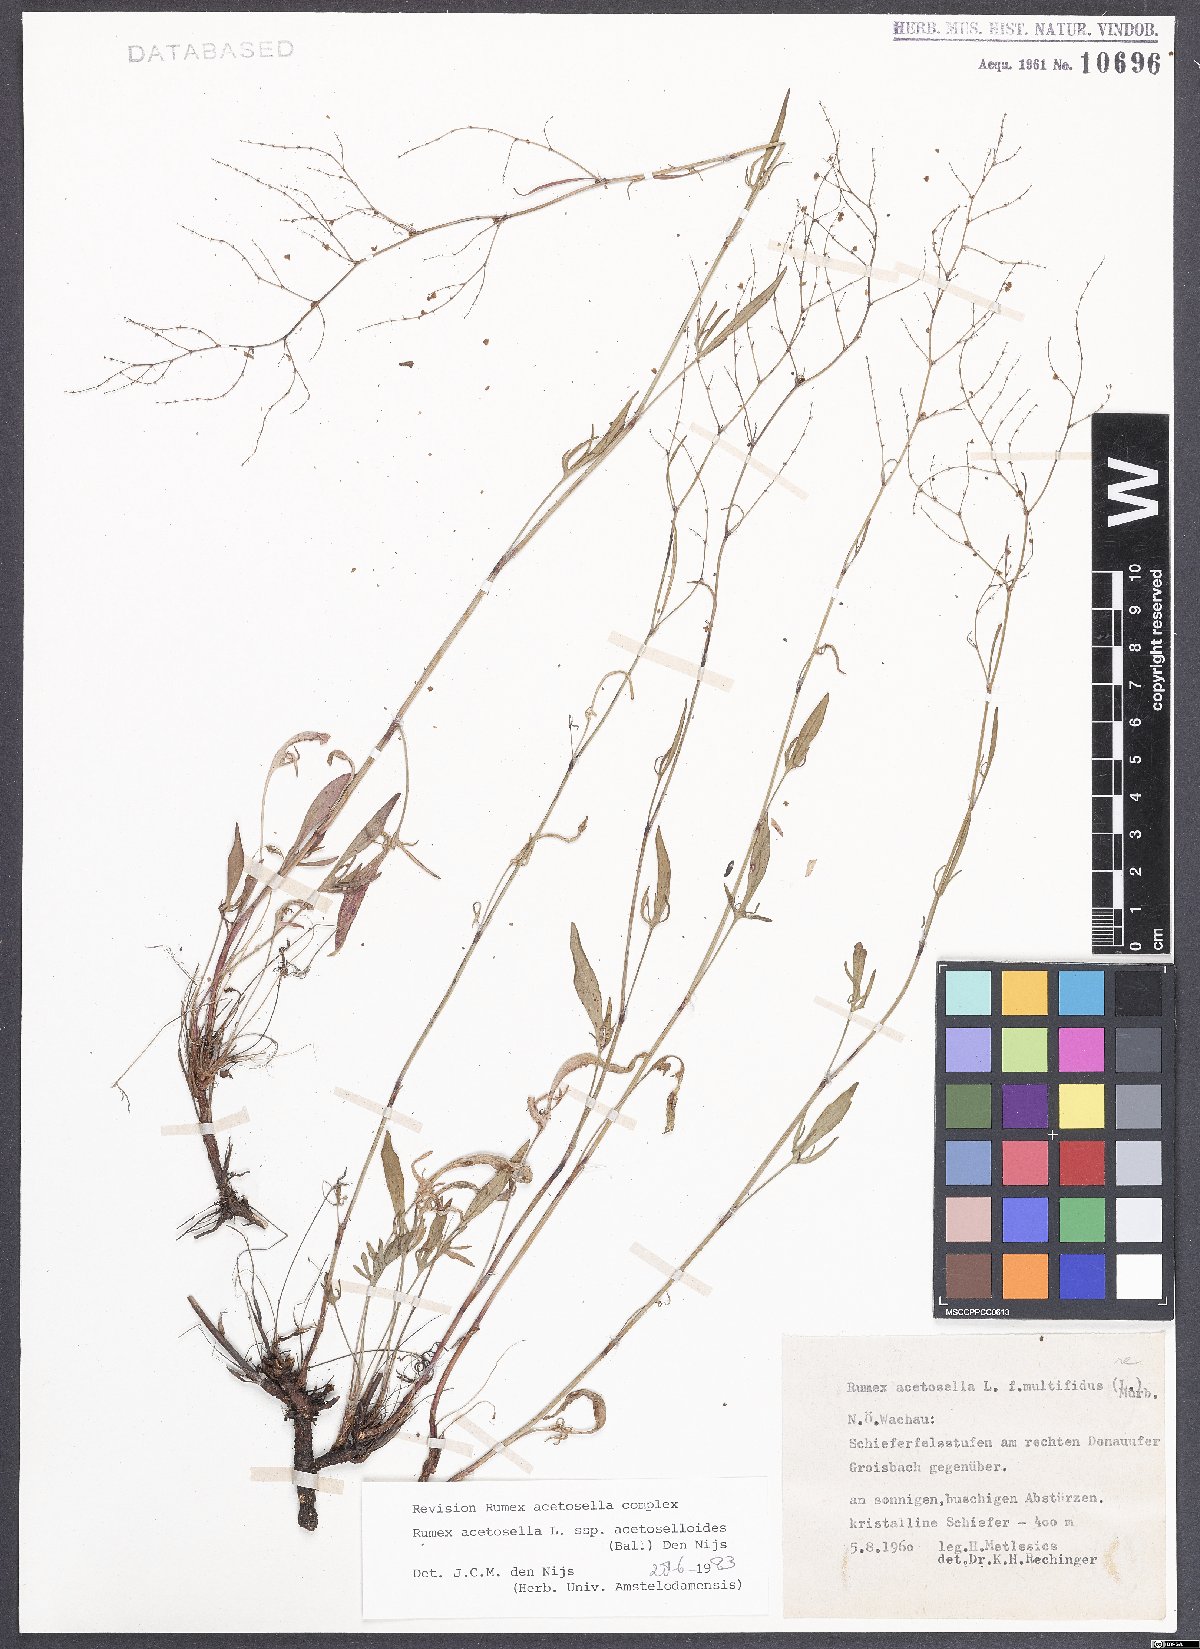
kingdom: Plantae
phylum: Tracheophyta
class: Magnoliopsida
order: Caryophyllales
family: Polygonaceae
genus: Rumex
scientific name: Rumex acetosella
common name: Common sheep sorrel
